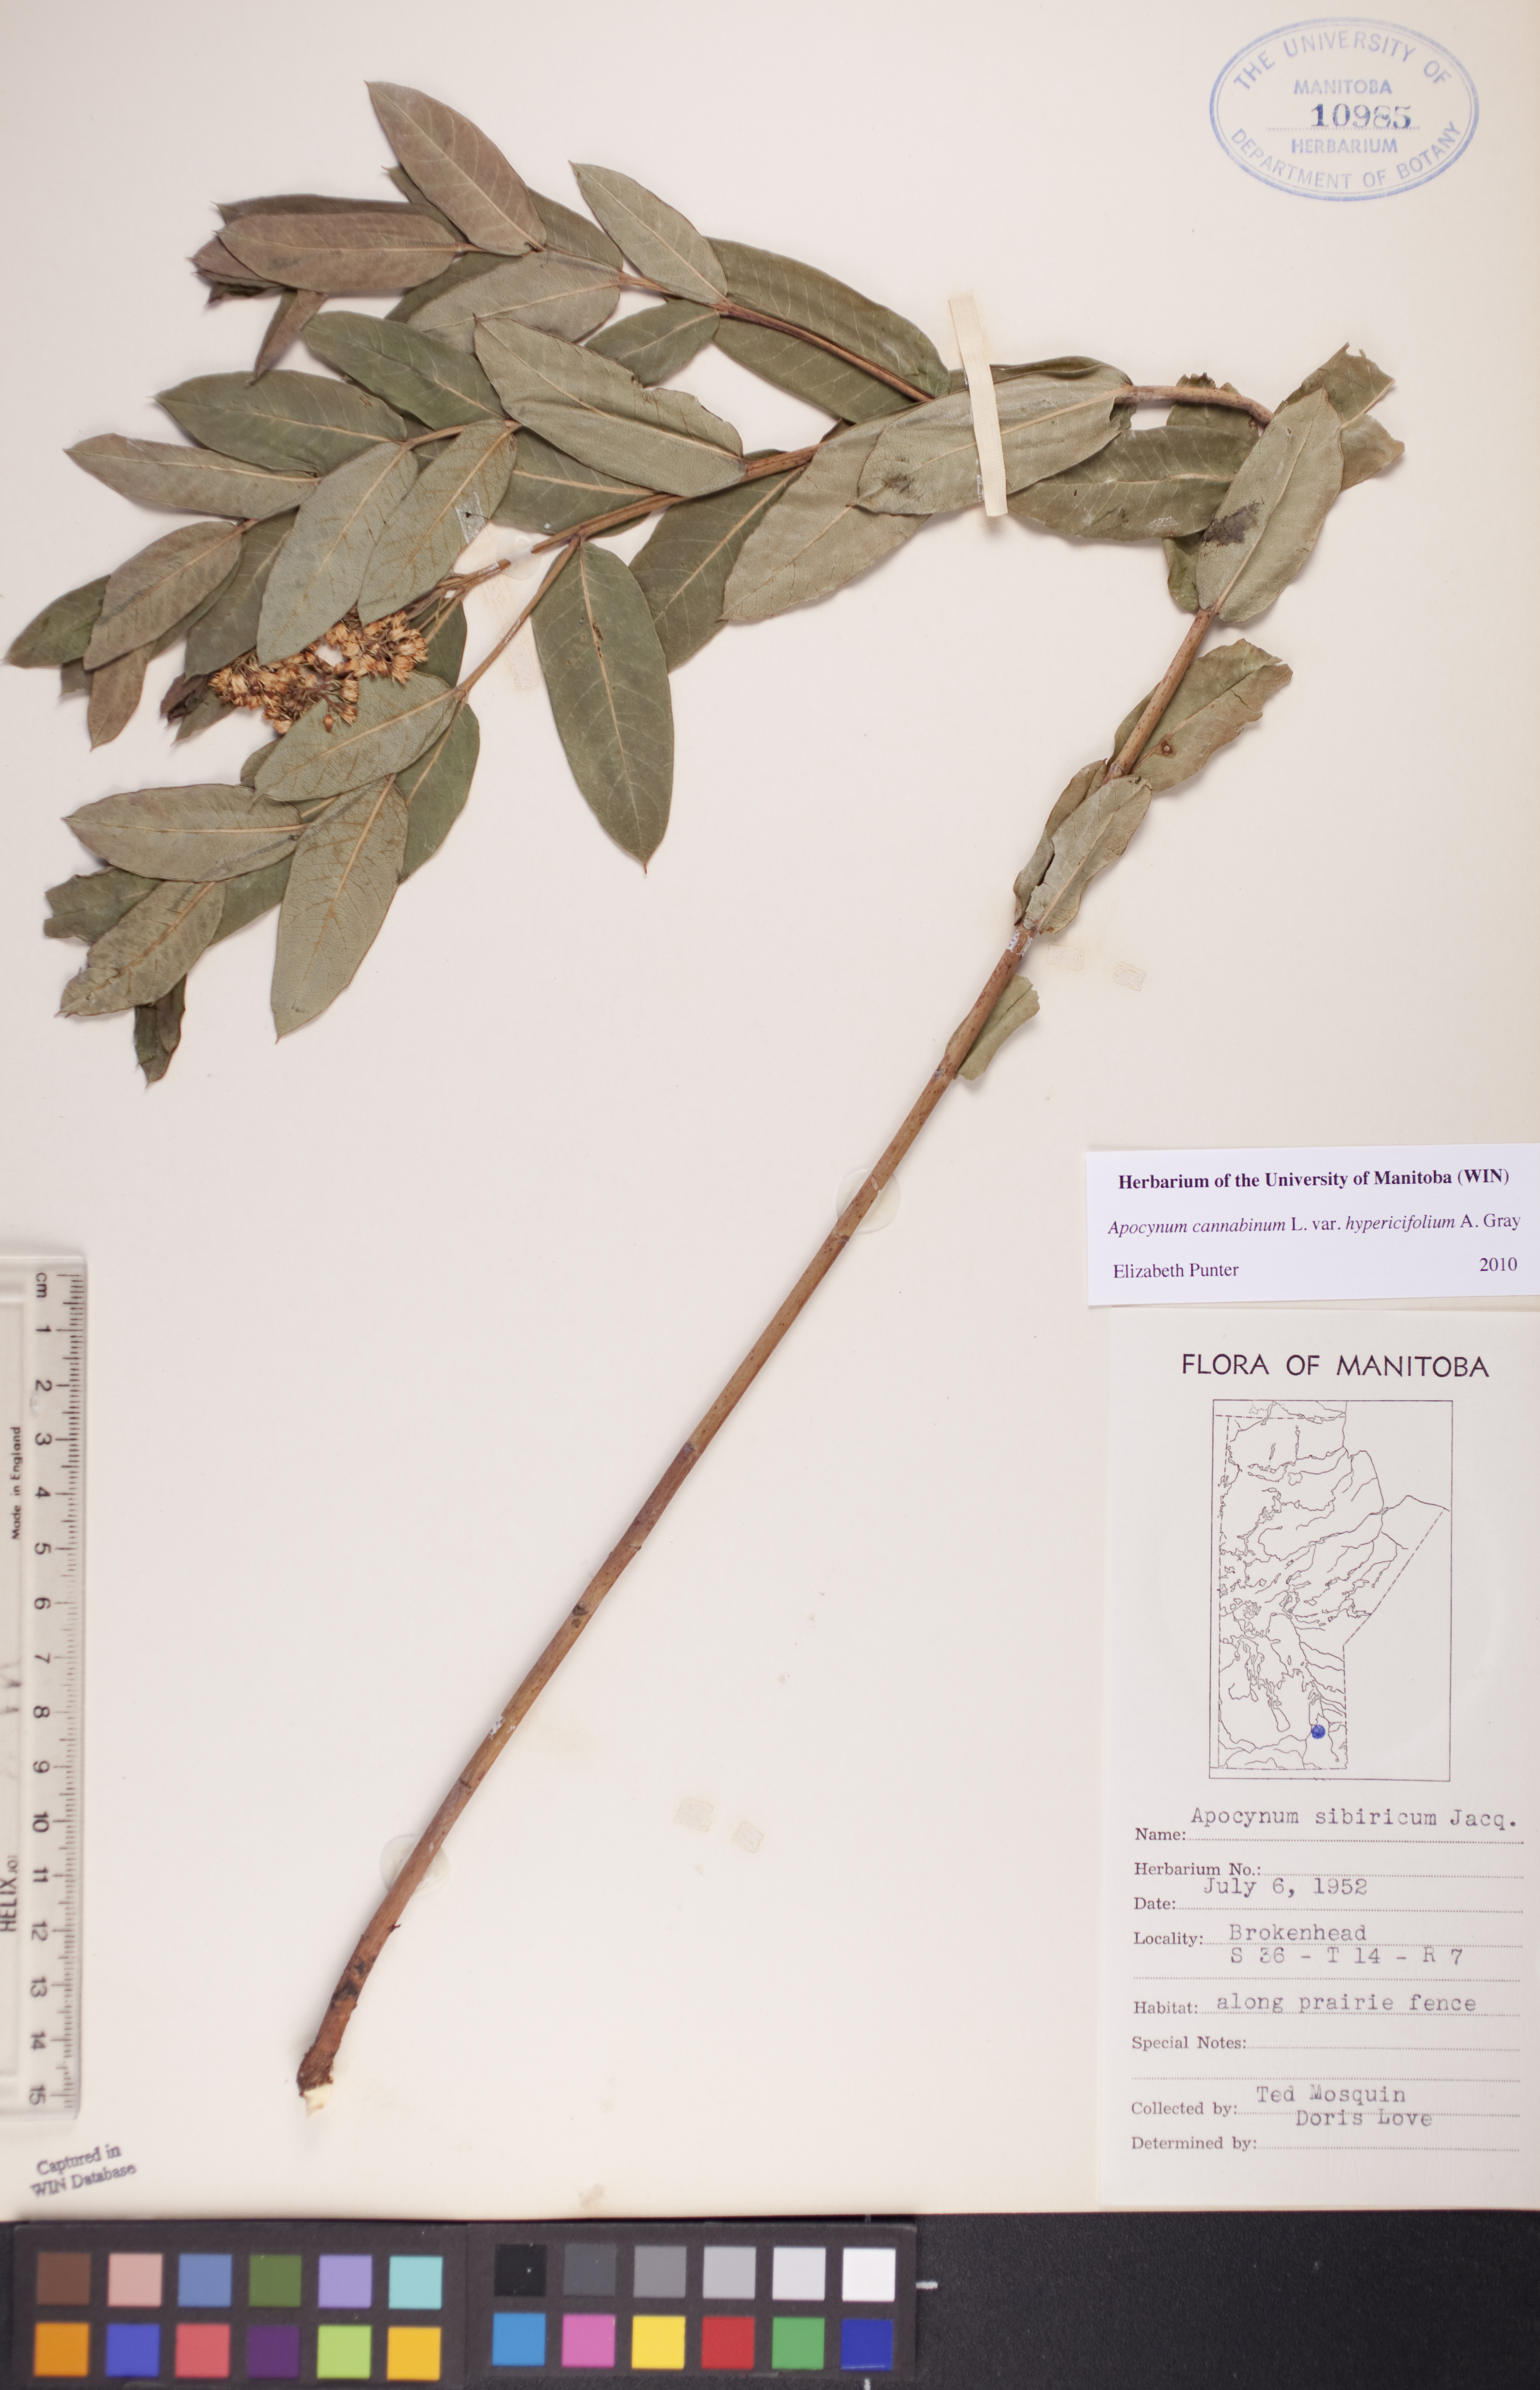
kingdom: Plantae
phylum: Tracheophyta
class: Magnoliopsida
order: Gentianales
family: Apocynaceae
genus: Apocynum
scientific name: Apocynum cannabinum
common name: Hemp dogbane
